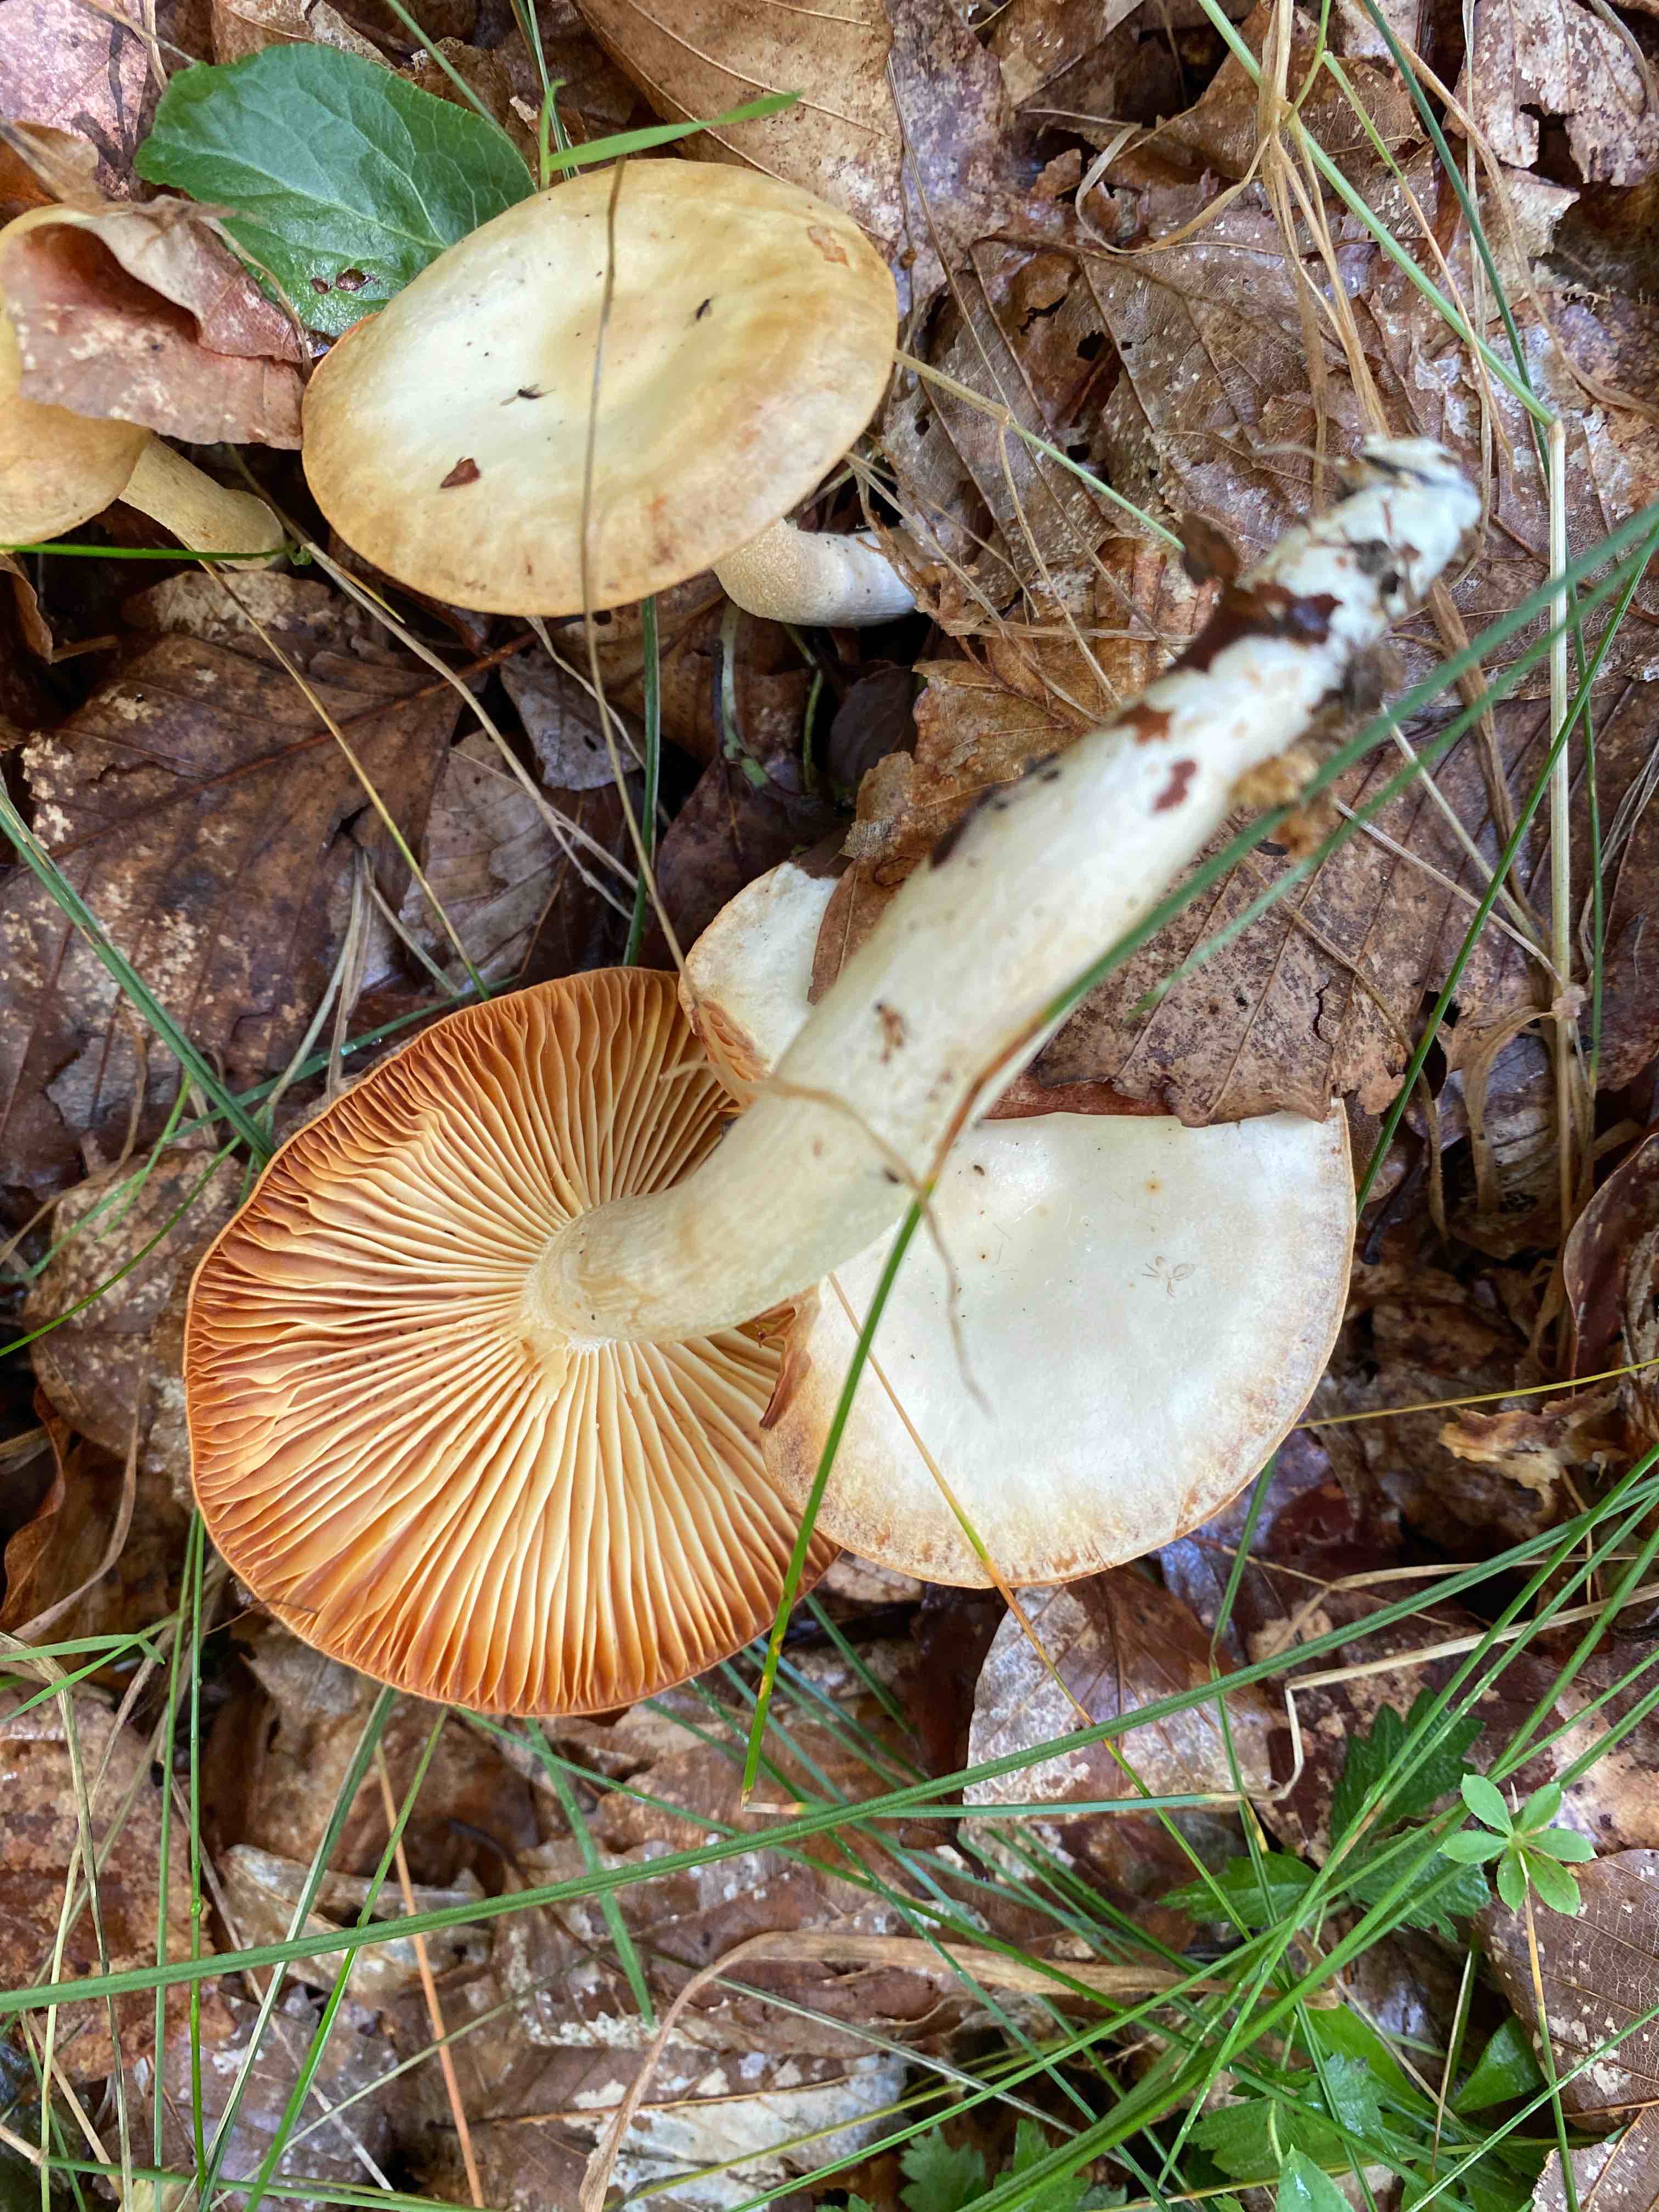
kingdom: Fungi
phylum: Basidiomycota
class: Agaricomycetes
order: Agaricales
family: Hygrophoraceae
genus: Hygrophorus
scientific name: Hygrophorus
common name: sneglehat
